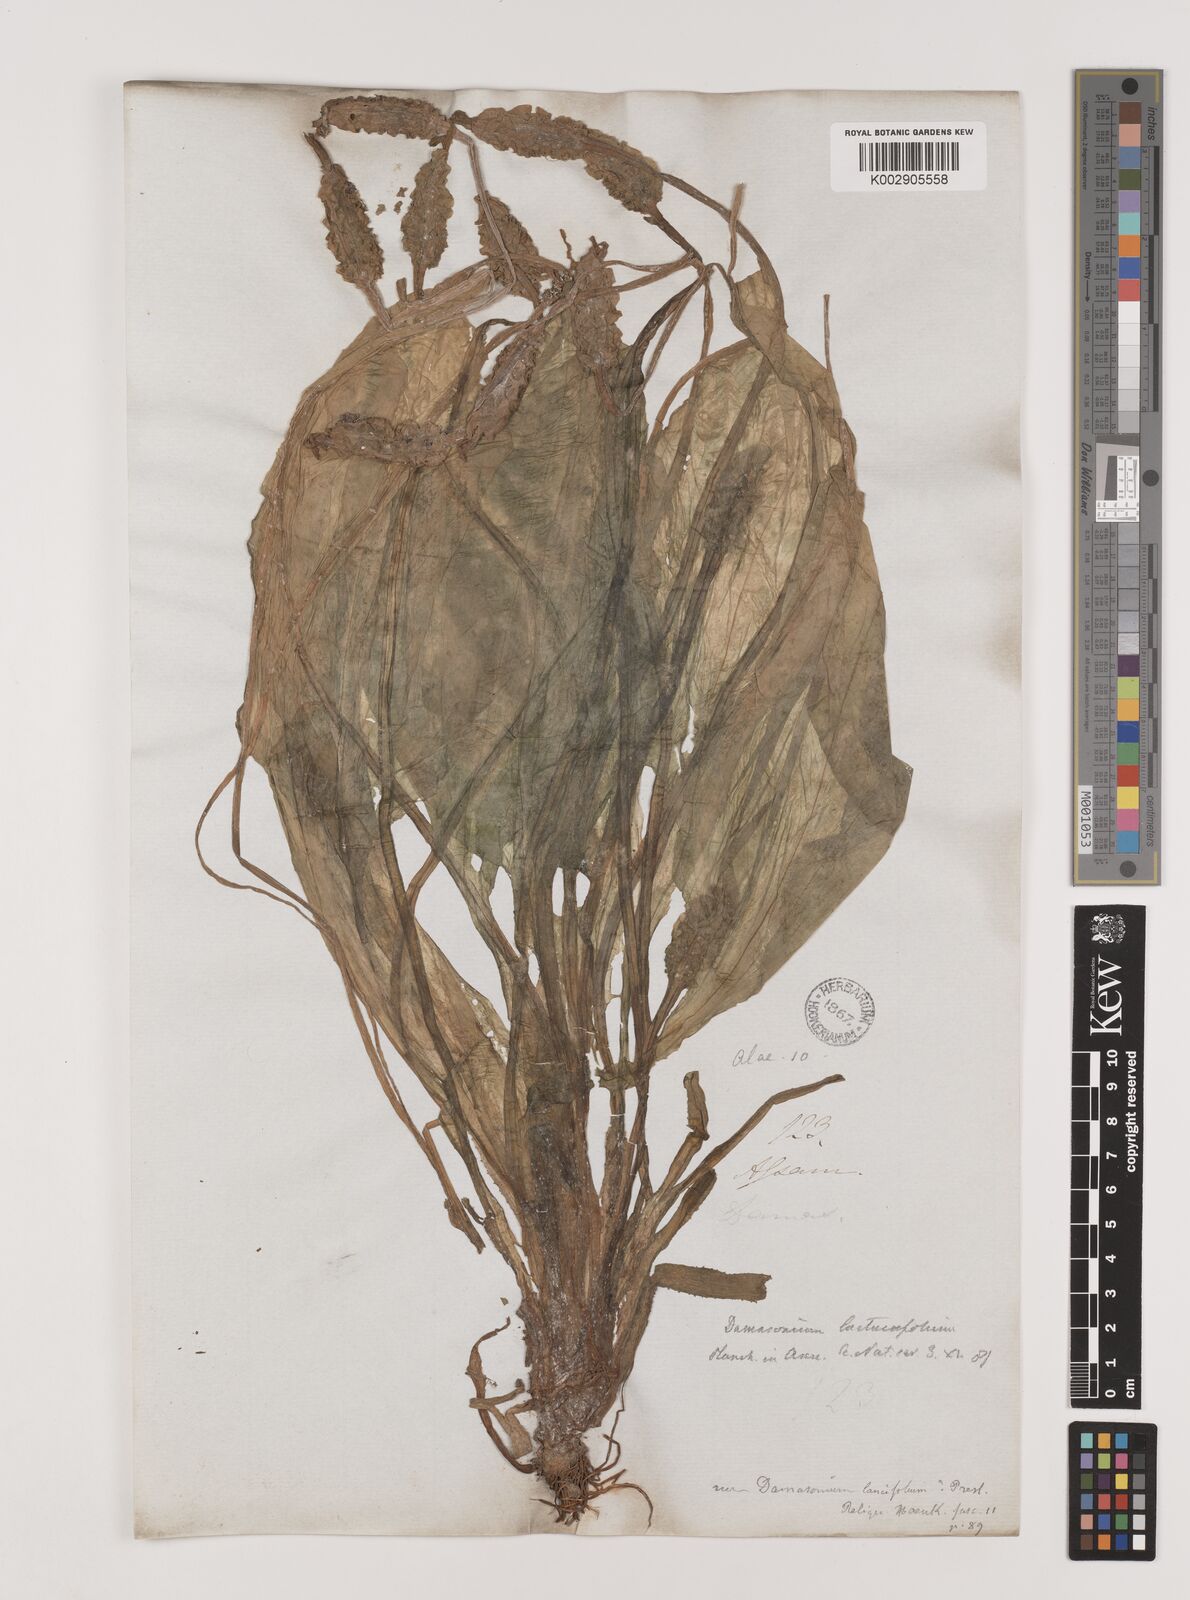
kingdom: Plantae
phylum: Tracheophyta
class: Liliopsida
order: Alismatales
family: Hydrocharitaceae
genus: Ottelia
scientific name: Ottelia alismoides
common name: Duck-lettuce
